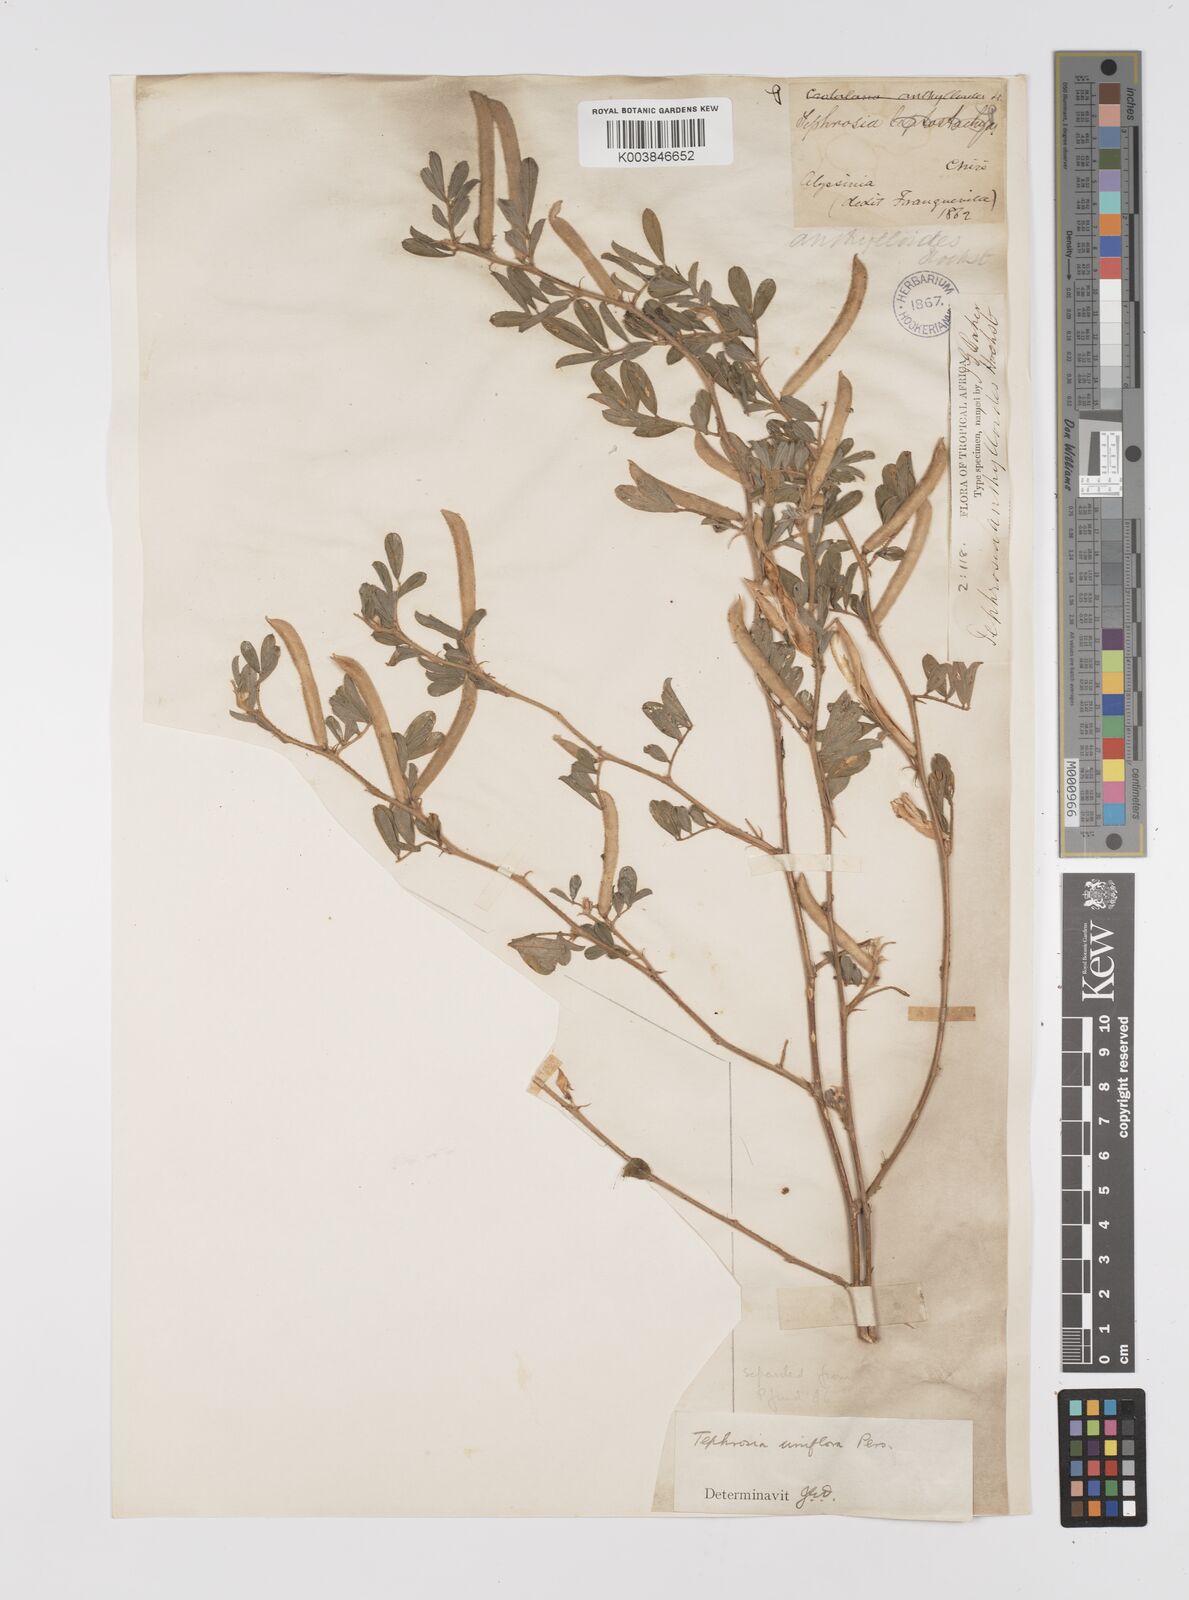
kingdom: Plantae
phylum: Tracheophyta
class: Magnoliopsida
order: Fabales
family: Fabaceae
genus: Tephrosia
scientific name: Tephrosia uniflora
